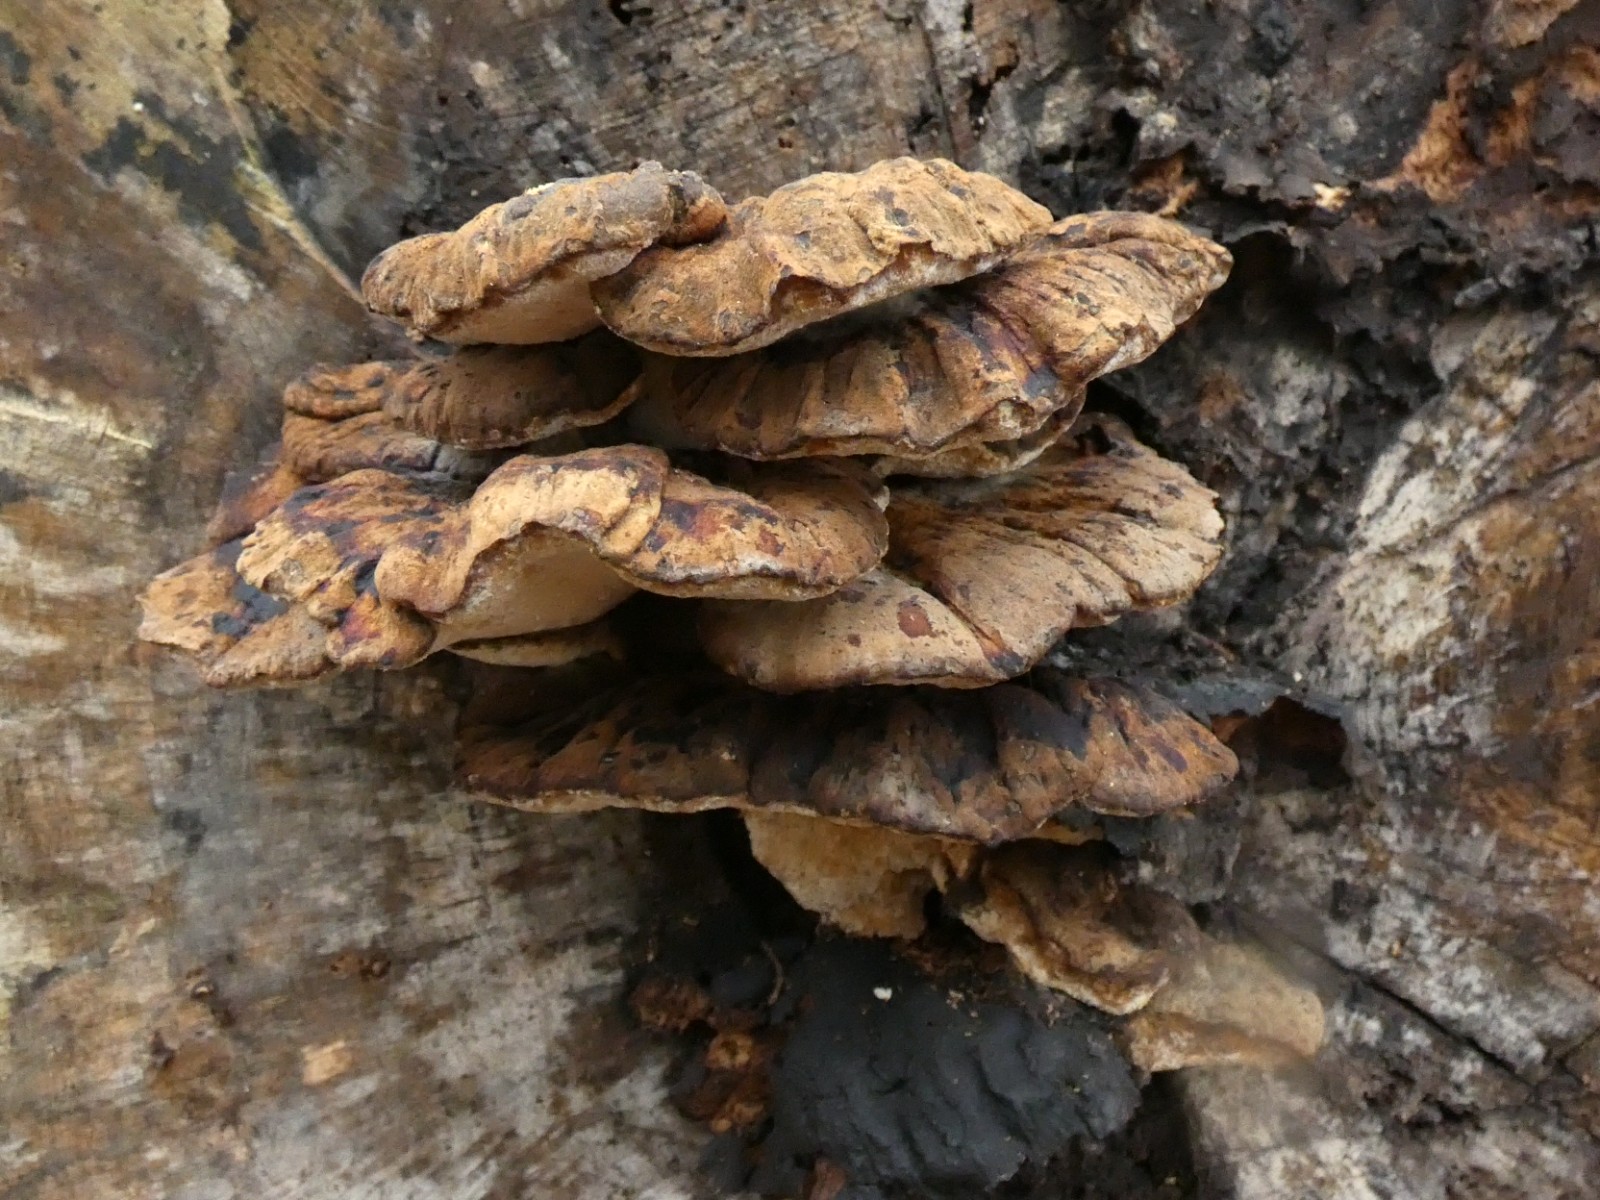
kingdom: Fungi
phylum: Basidiomycota
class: Agaricomycetes
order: Polyporales
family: Ischnodermataceae
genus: Ischnoderma
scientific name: Ischnoderma resinosum
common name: løv-tjæreporesvamp
